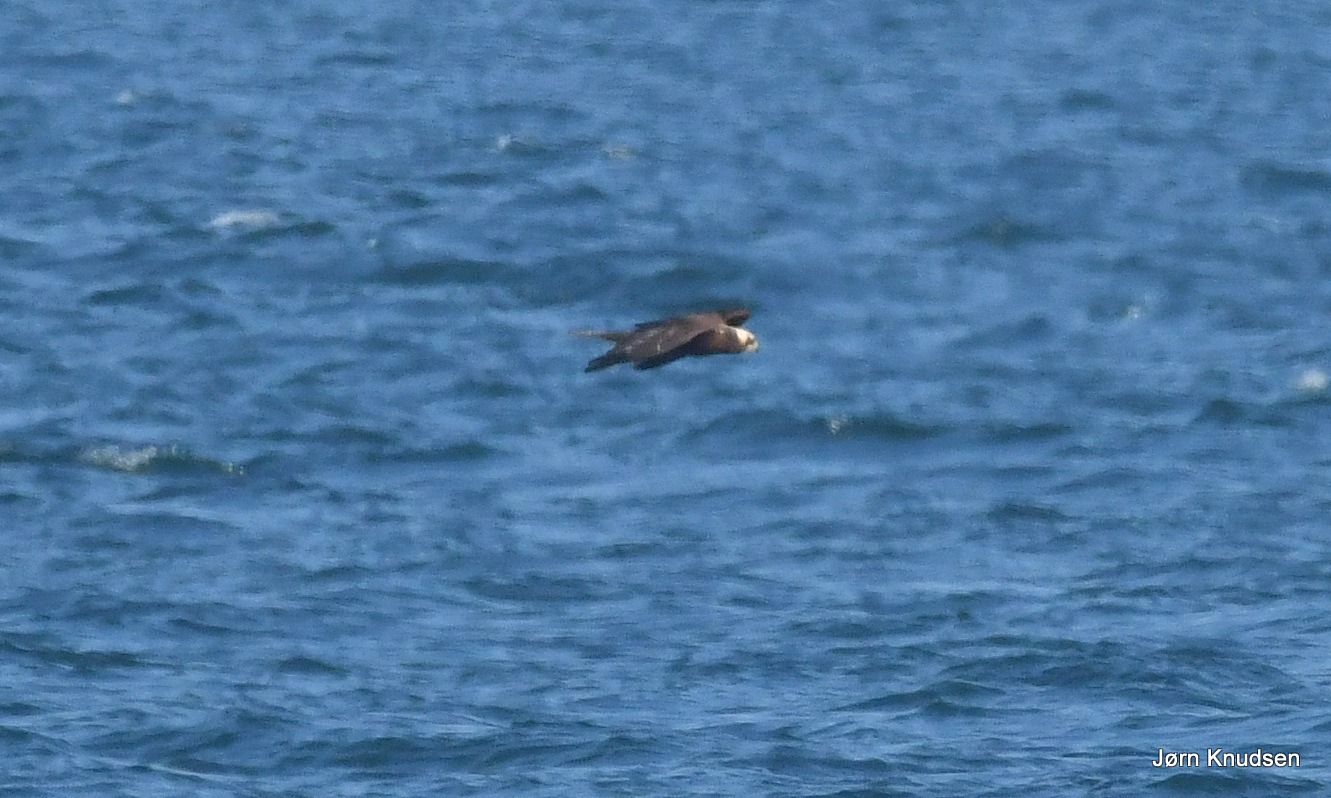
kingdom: Animalia
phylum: Chordata
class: Aves
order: Accipitriformes
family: Accipitridae
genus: Circus
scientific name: Circus aeruginosus
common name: Rørhøg
